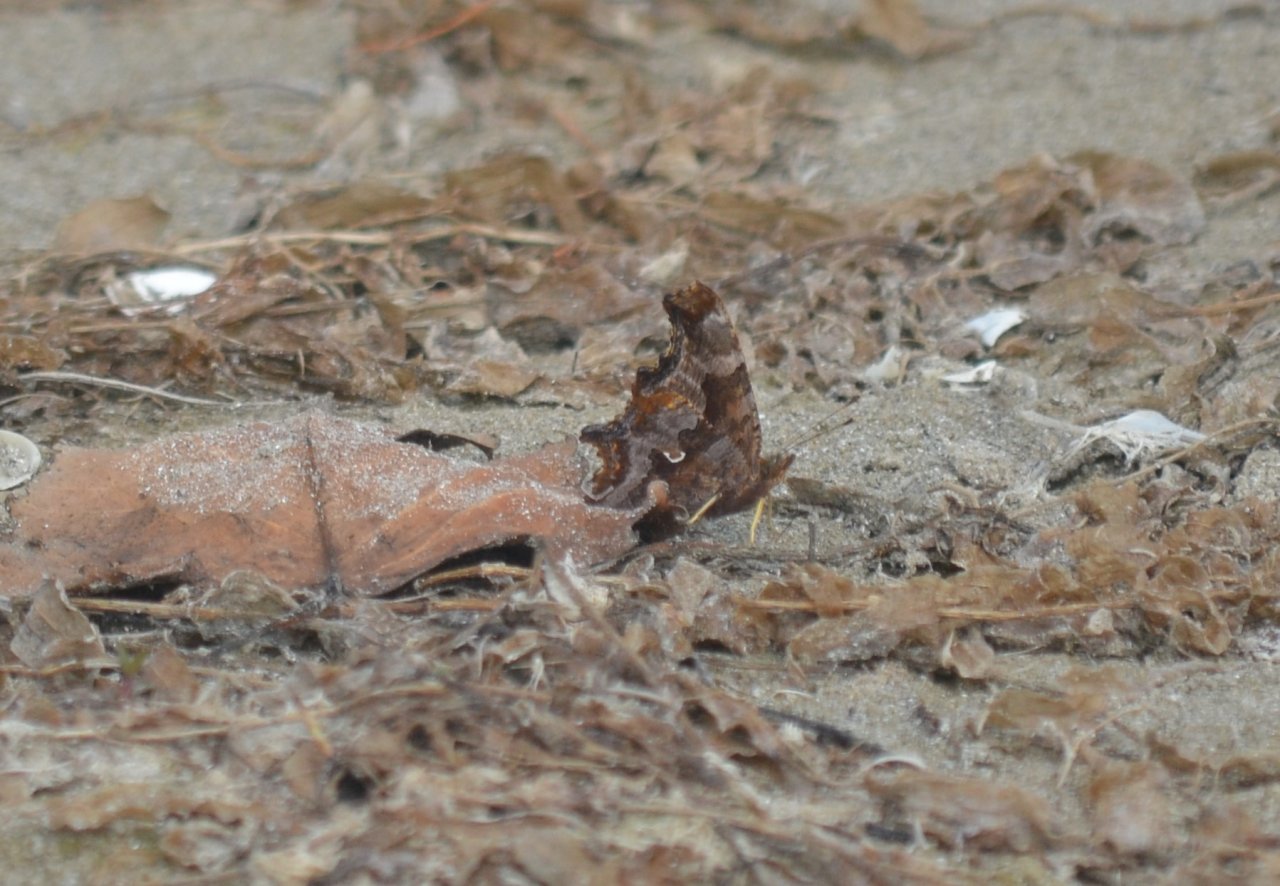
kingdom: Animalia
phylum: Arthropoda
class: Insecta
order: Lepidoptera
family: Nymphalidae
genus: Polygonia
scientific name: Polygonia comma
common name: Eastern Comma
